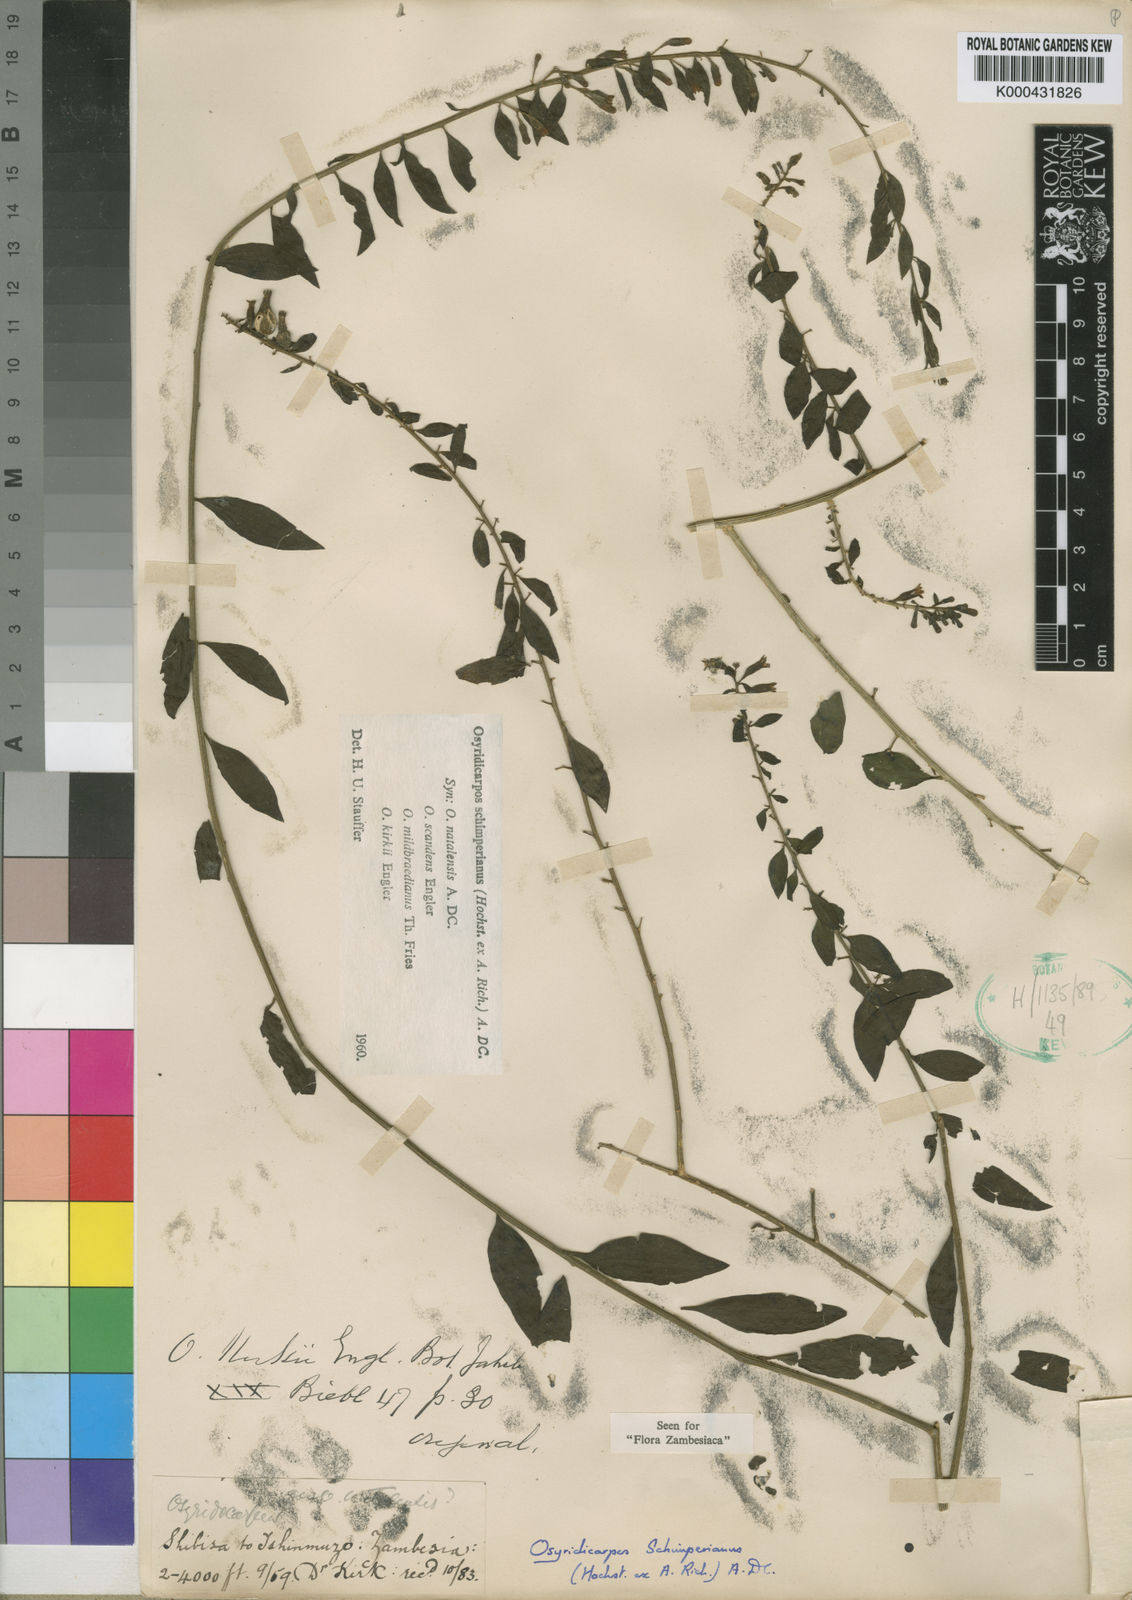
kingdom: Plantae
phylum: Tracheophyta
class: Magnoliopsida
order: Santalales
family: Thesiaceae
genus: Osyridicarpos
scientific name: Osyridicarpos schimperianus
